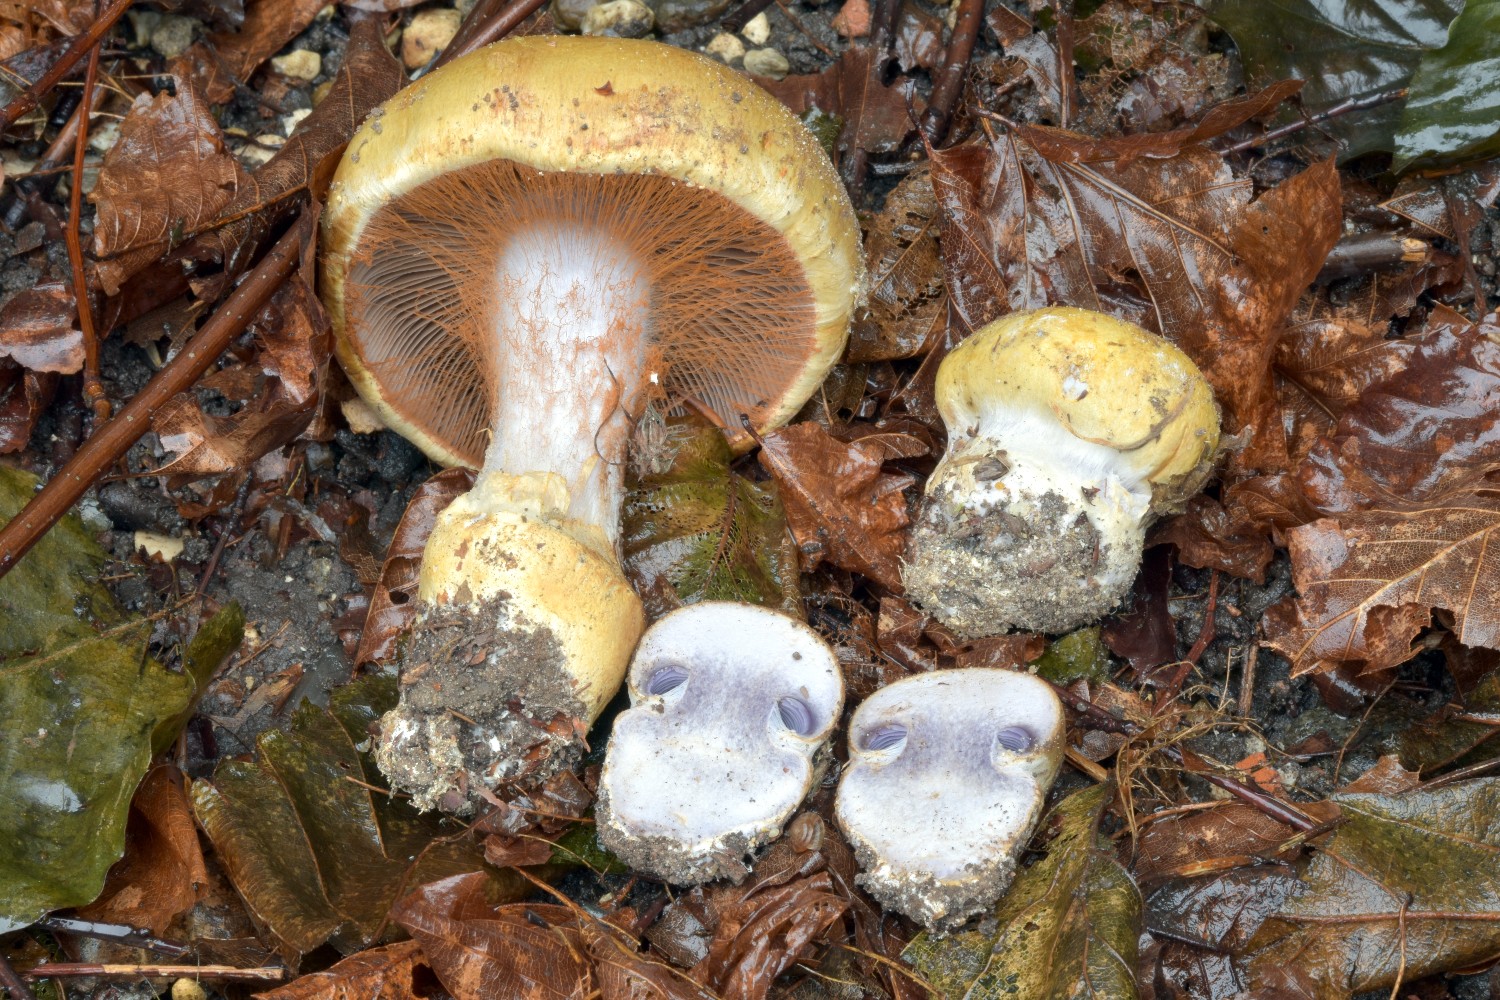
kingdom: Fungi
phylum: Basidiomycota
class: Agaricomycetes
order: Agaricales
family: Cortinariaceae
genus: Cortinarius
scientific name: Cortinarius anserinus
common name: bøge-slørhat
